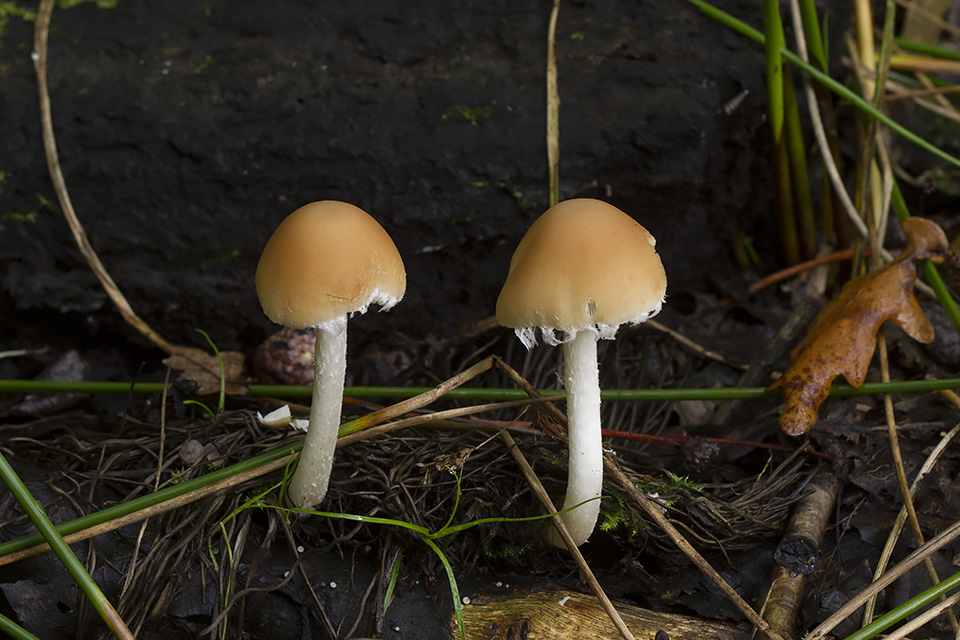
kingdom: Fungi
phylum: Basidiomycota
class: Agaricomycetes
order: Agaricales
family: Psathyrellaceae
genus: Candolleomyces
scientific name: Candolleomyces candolleanus
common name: Candolles mørkhat
